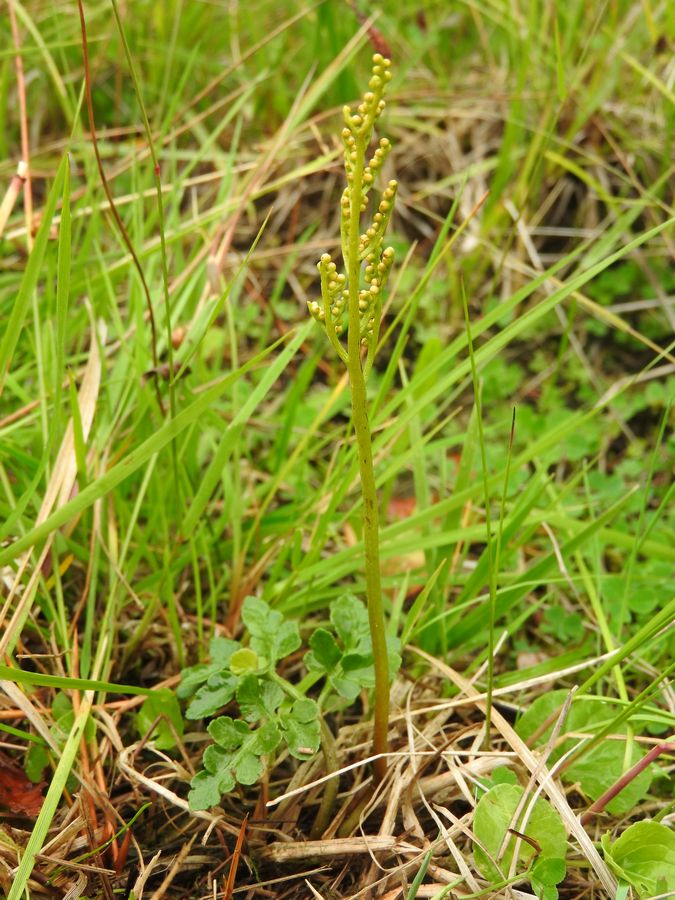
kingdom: Plantae
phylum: Tracheophyta
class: Polypodiopsida
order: Ophioglossales
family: Ophioglossaceae
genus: Sceptridium
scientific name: Sceptridium multifidum
